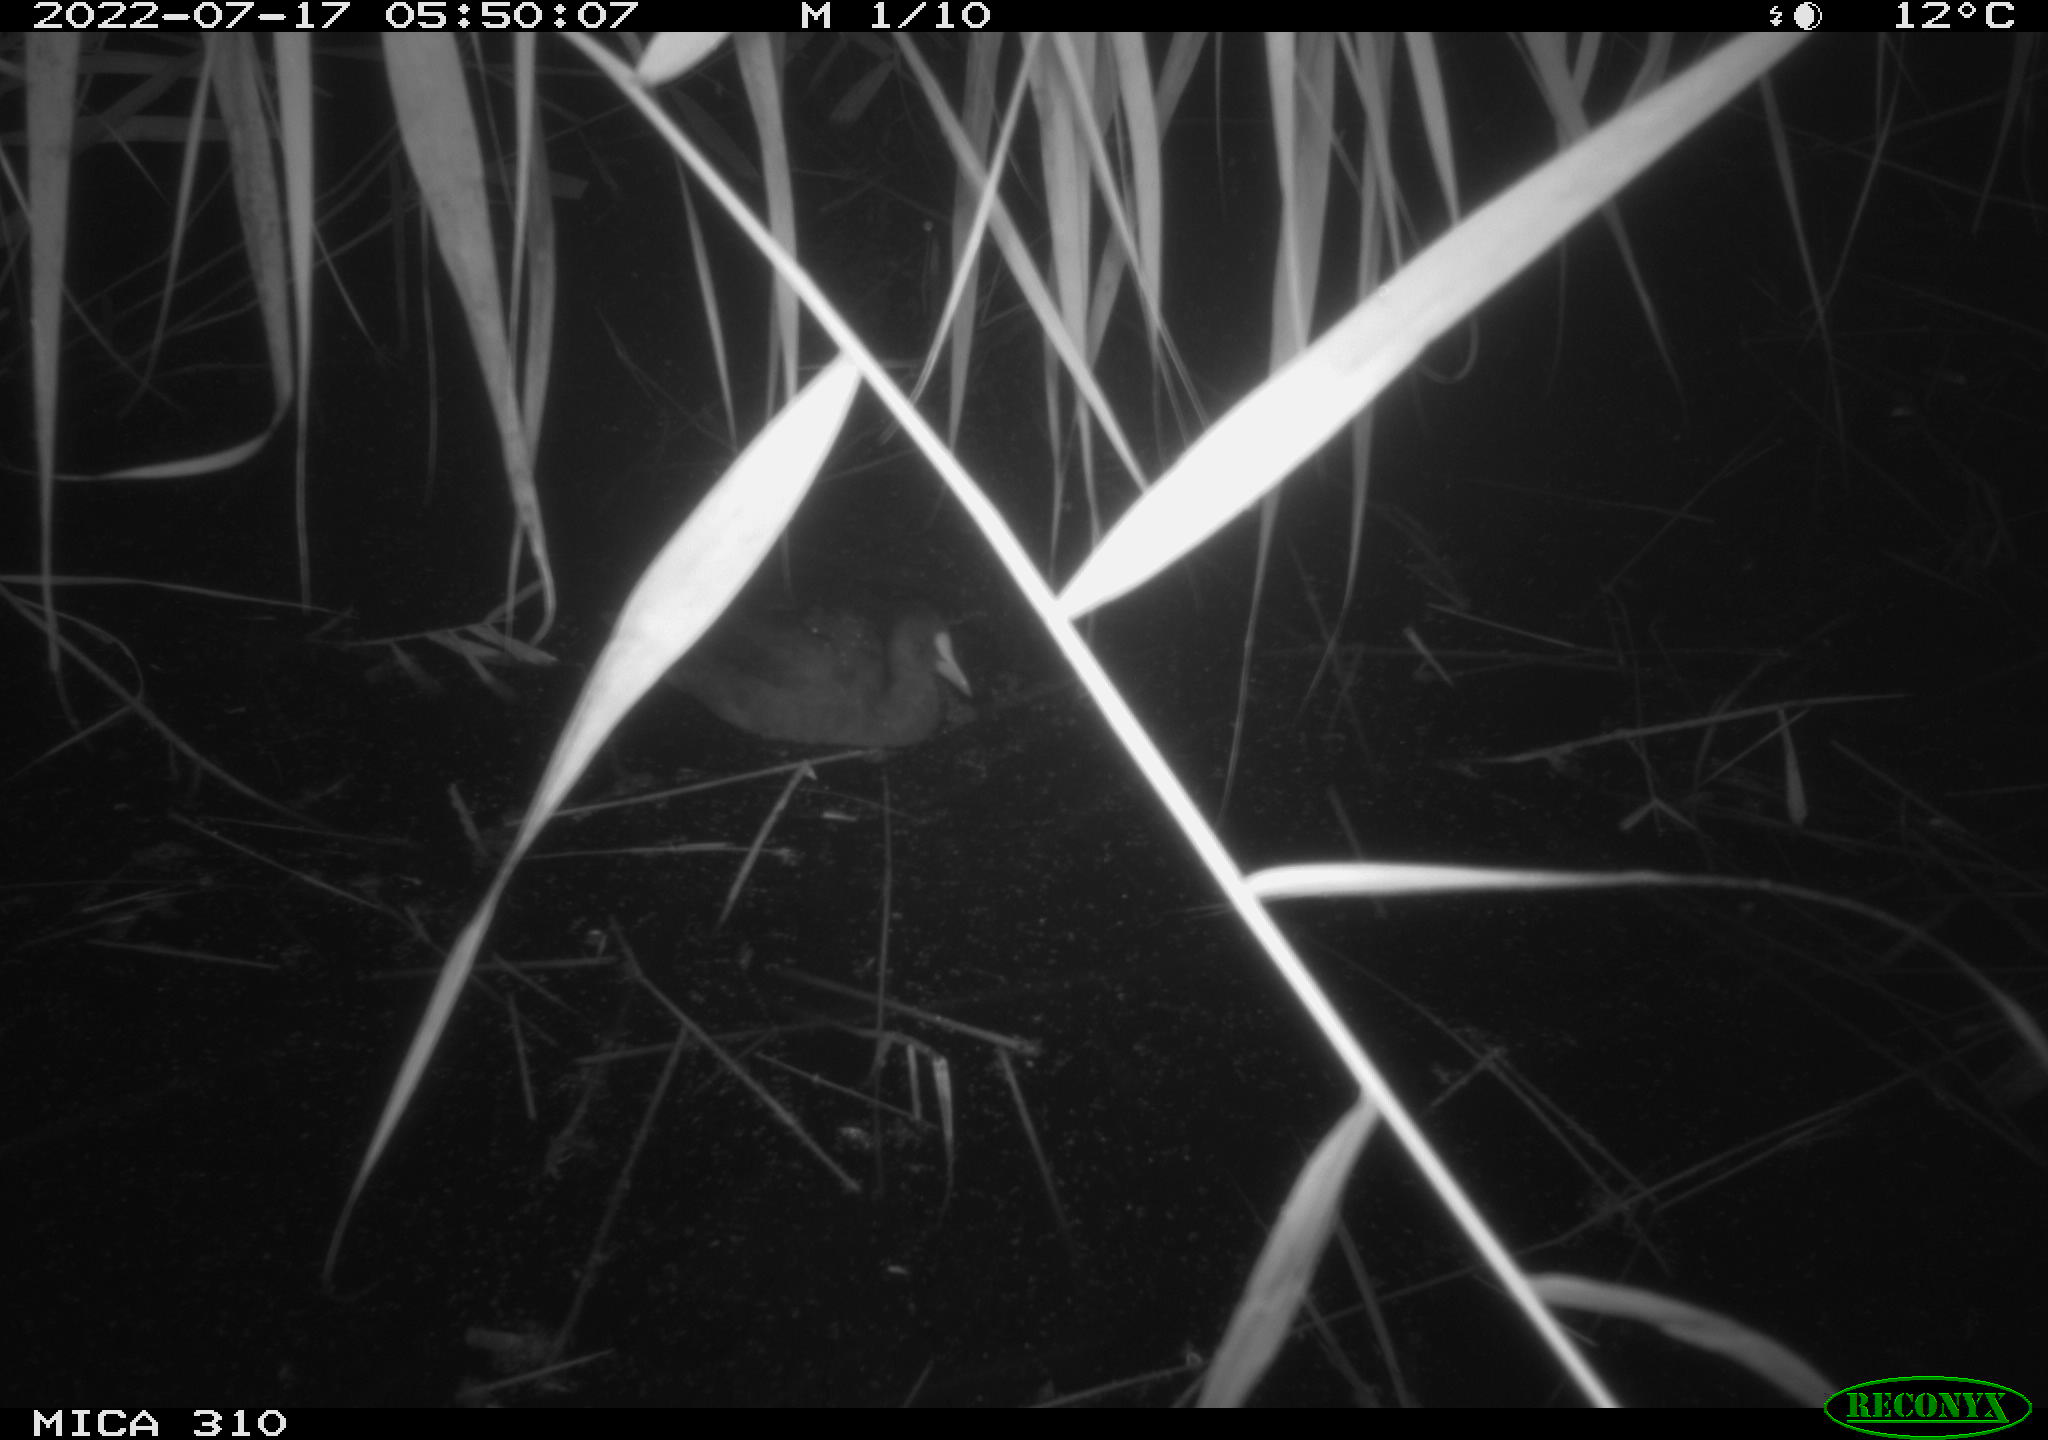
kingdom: Animalia
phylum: Chordata
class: Aves
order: Gruiformes
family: Rallidae
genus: Fulica
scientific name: Fulica atra
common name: Eurasian coot
